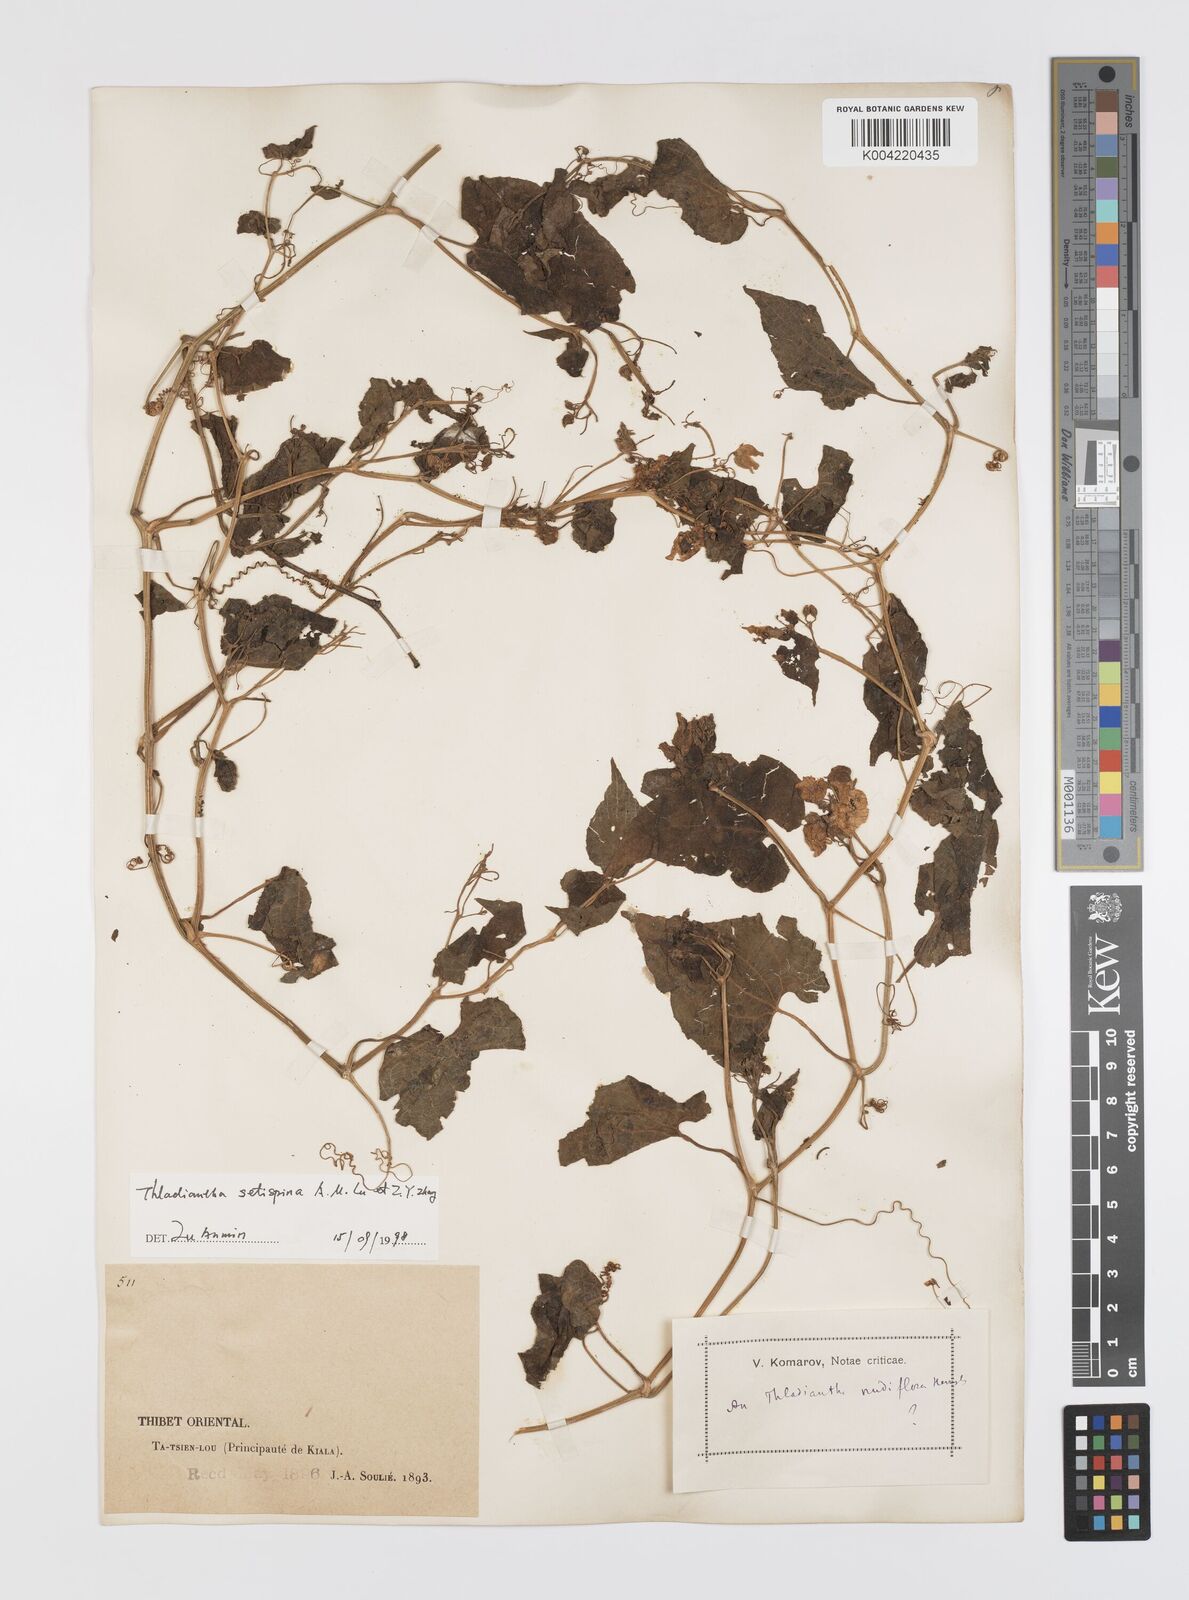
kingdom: Plantae
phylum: Tracheophyta
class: Magnoliopsida
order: Cucurbitales
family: Cucurbitaceae
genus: Thladiantha
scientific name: Thladiantha setispina
